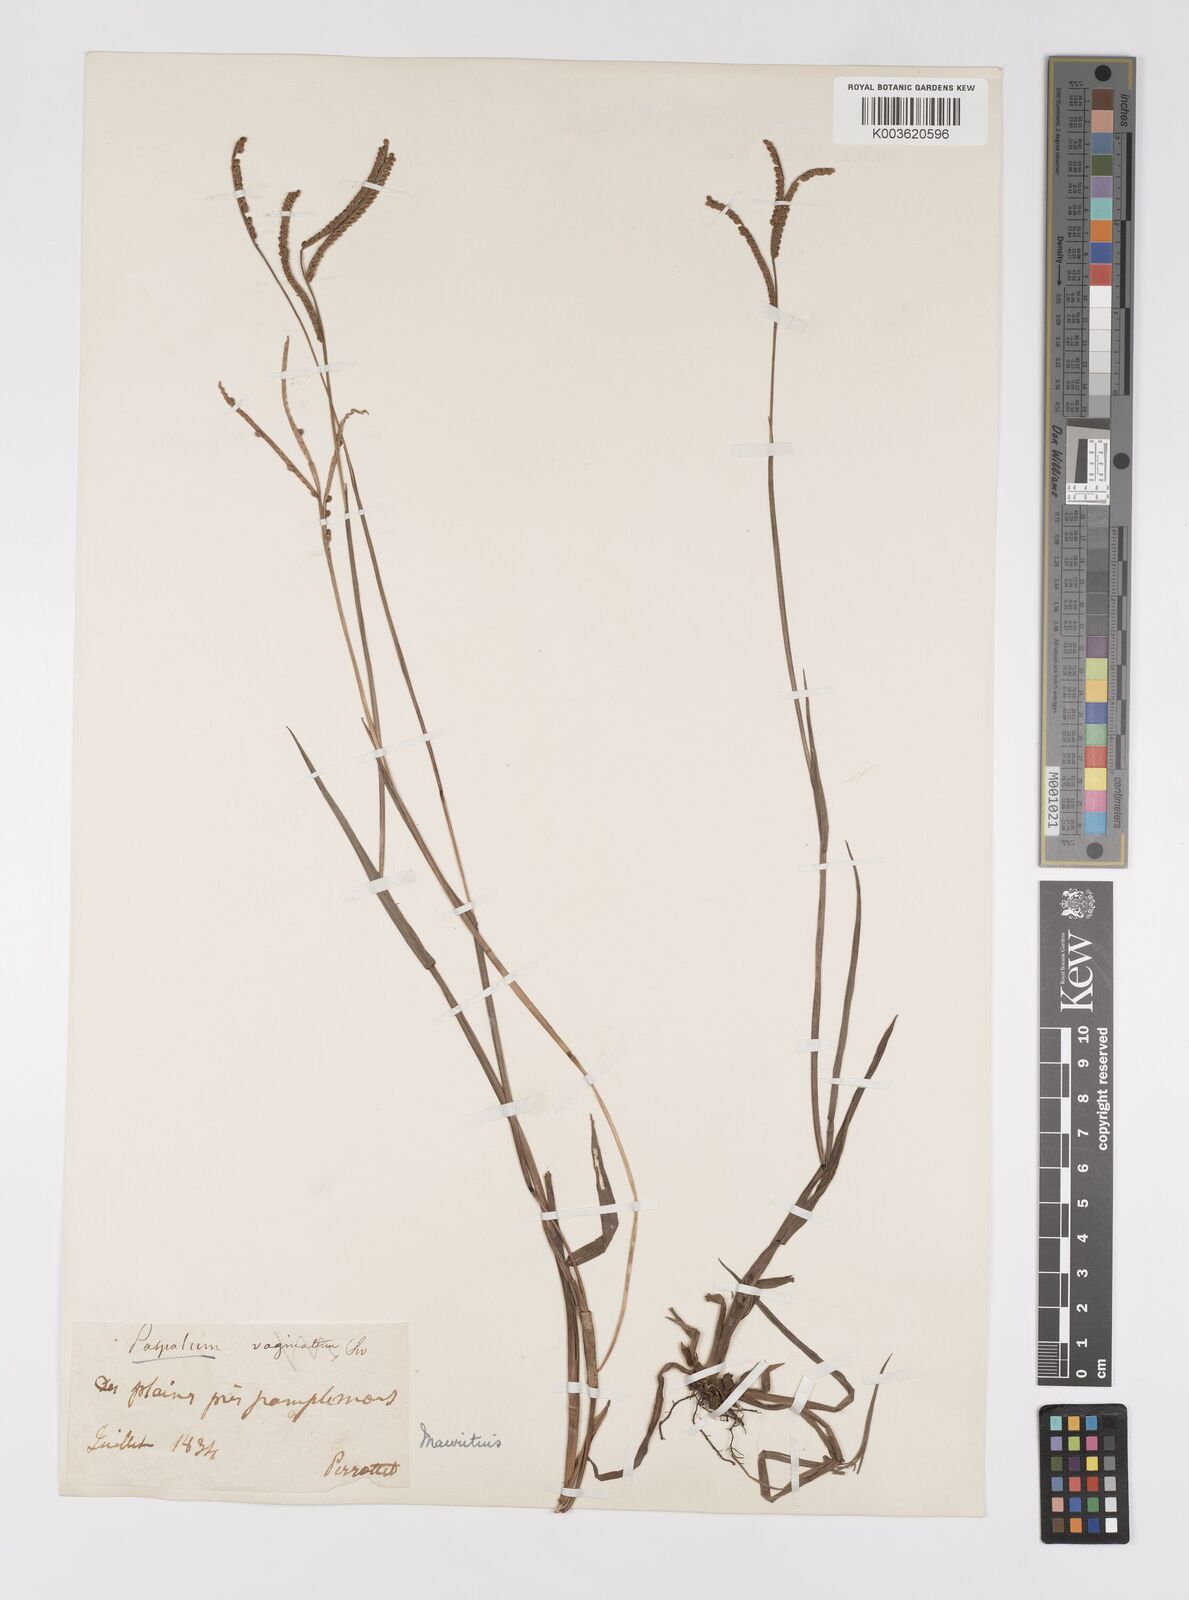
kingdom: Plantae
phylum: Tracheophyta
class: Liliopsida
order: Poales
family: Poaceae
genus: Paspalum
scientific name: Paspalum scrobiculatum
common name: Kodo millet
